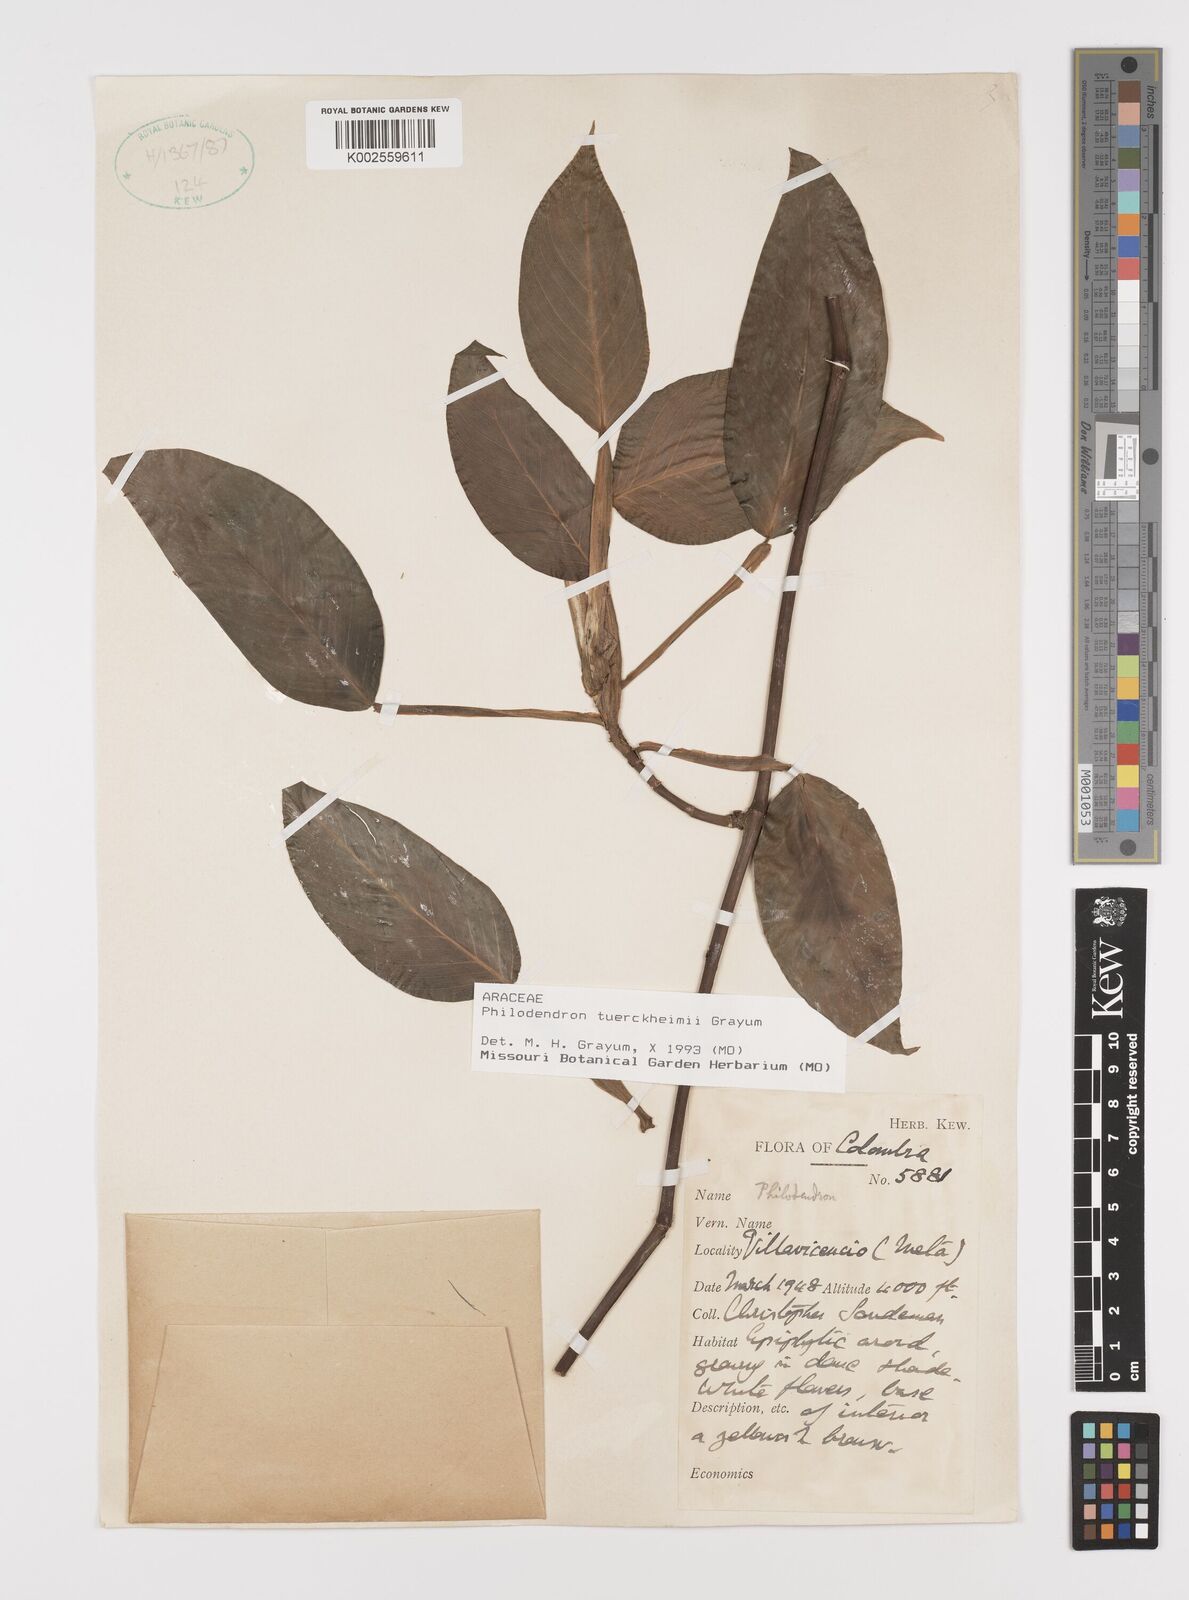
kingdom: Plantae
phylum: Tracheophyta
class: Liliopsida
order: Alismatales
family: Araceae
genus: Philodendron
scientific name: Philodendron tuerckheimii
